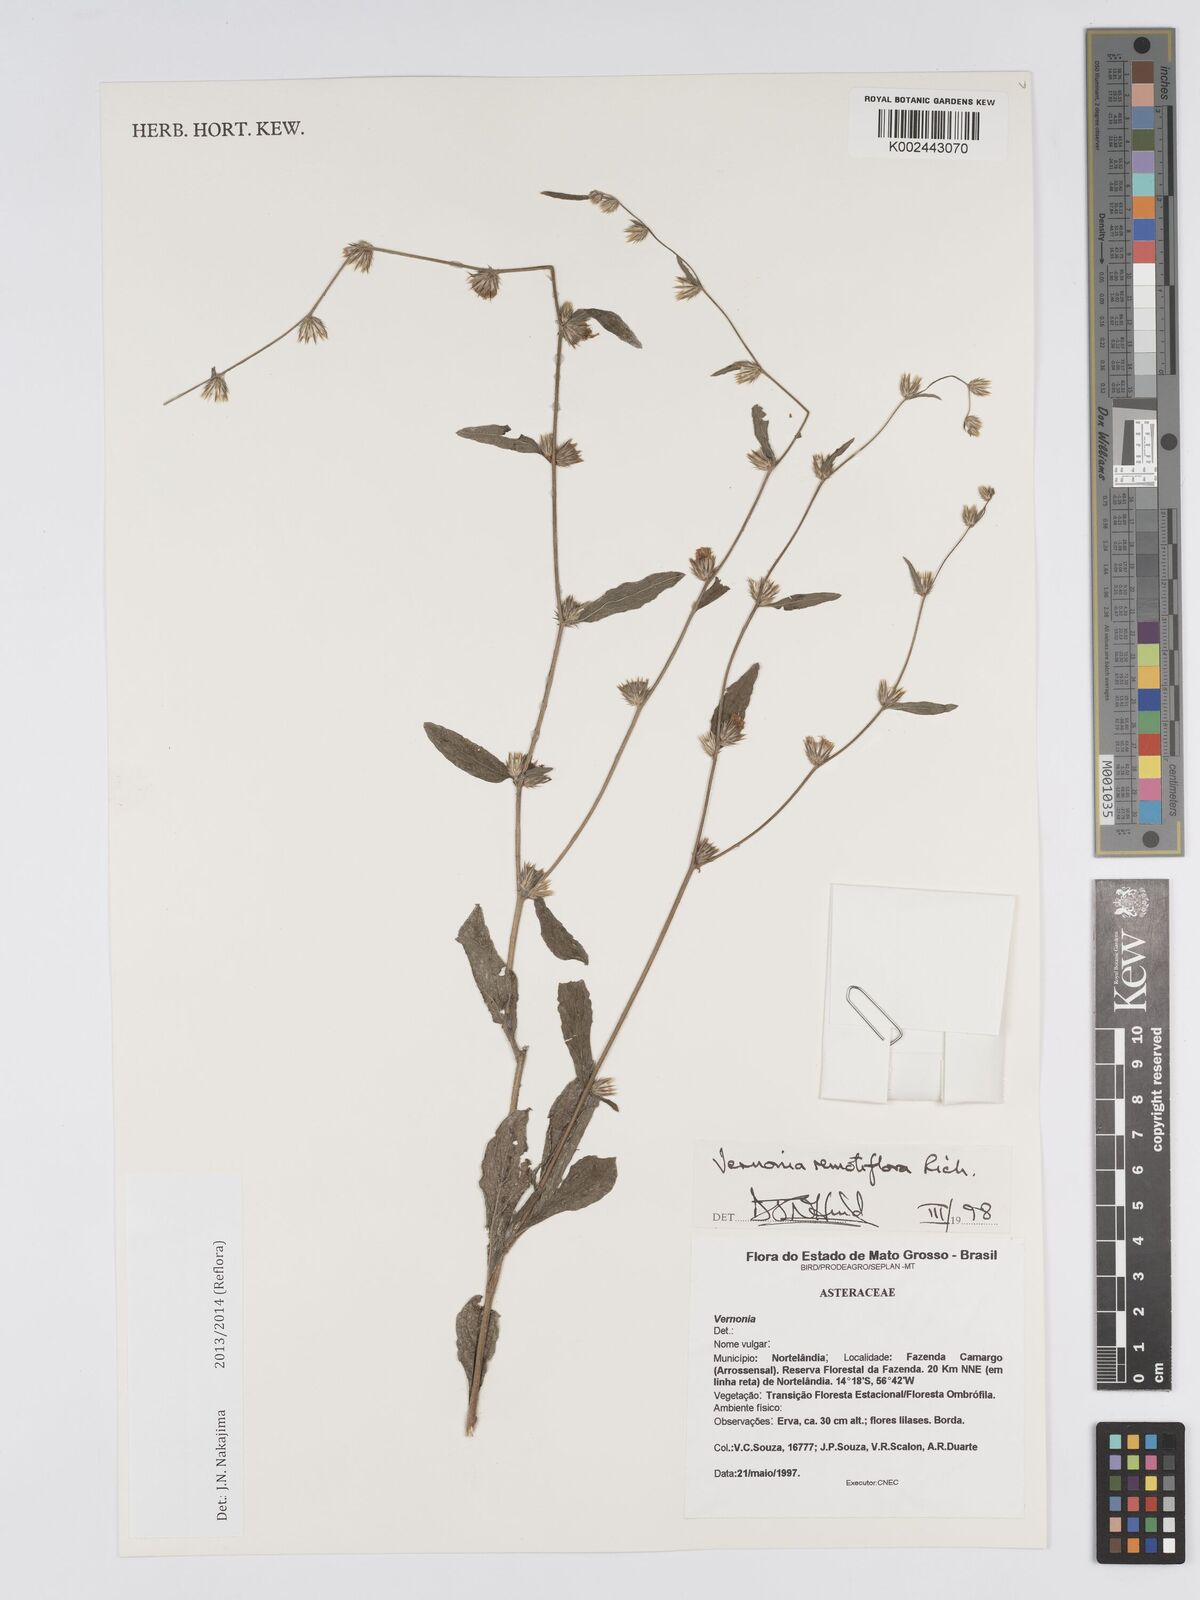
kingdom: Plantae
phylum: Tracheophyta
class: Magnoliopsida
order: Asterales
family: Asteraceae
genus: Lepidaploa
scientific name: Lepidaploa remotiflora
